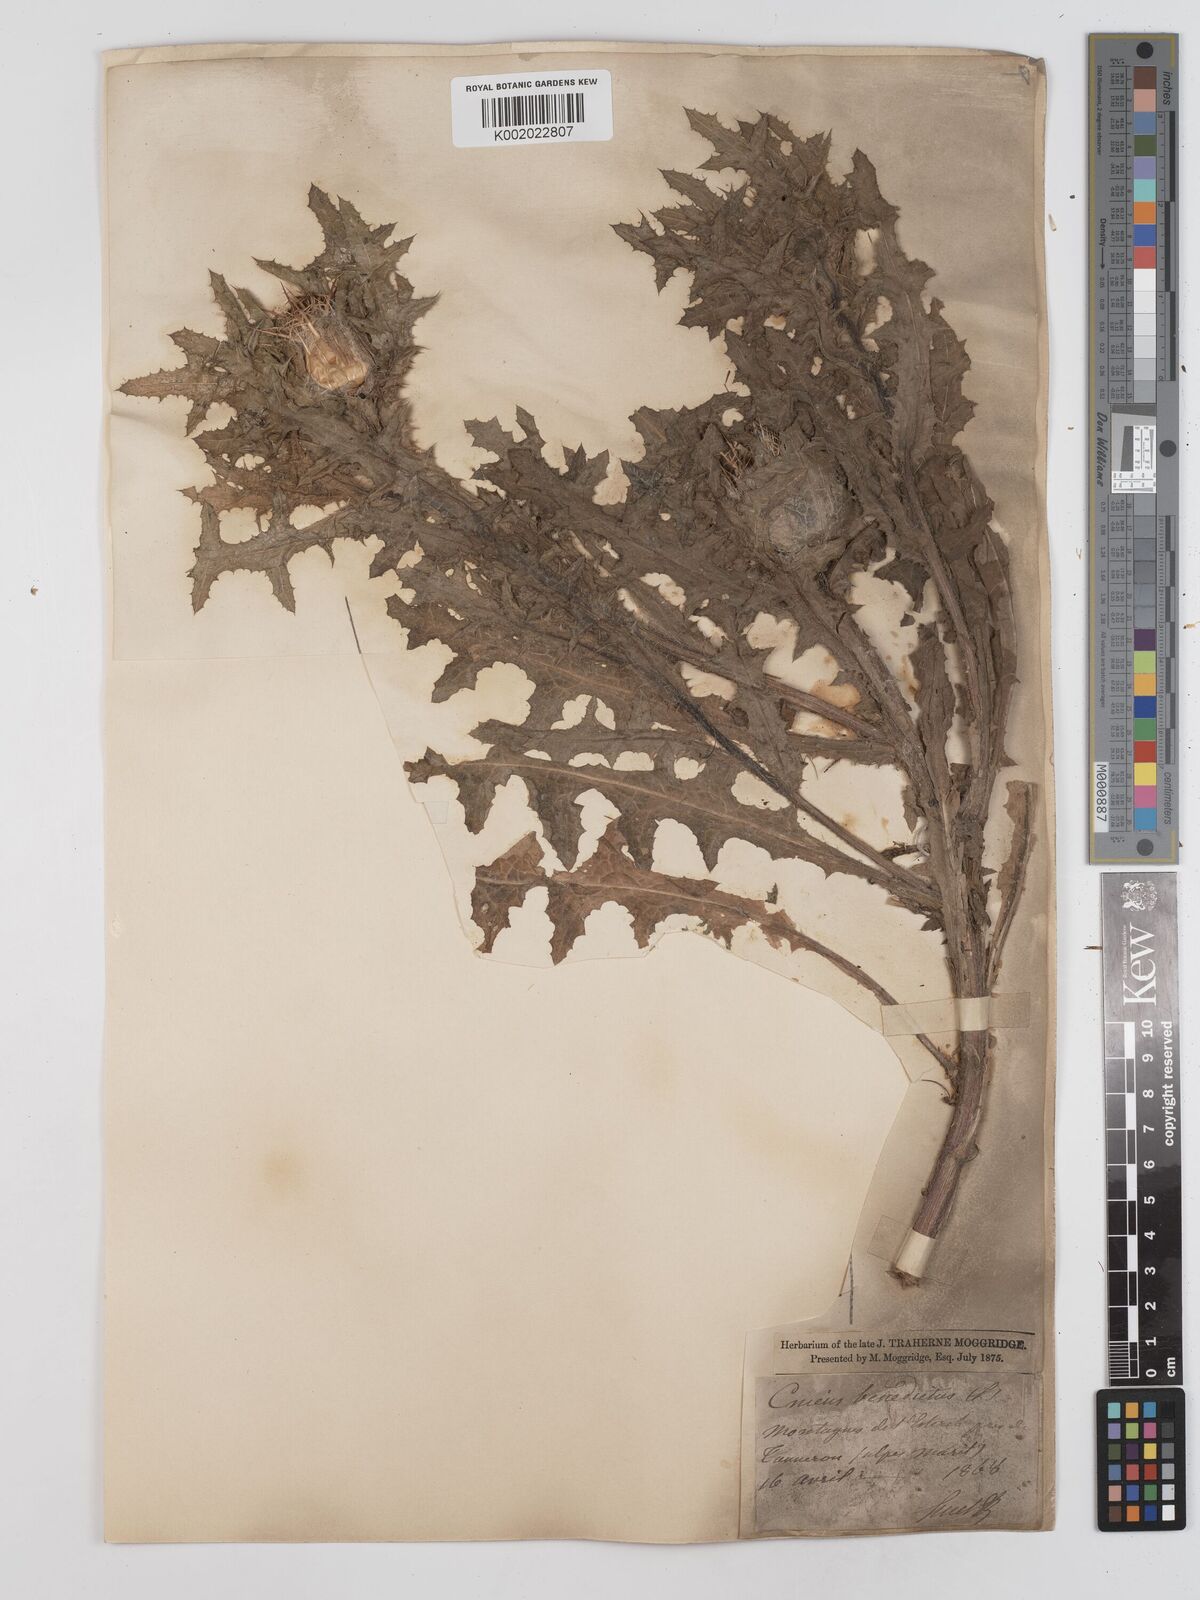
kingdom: Plantae
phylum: Tracheophyta
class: Magnoliopsida
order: Asterales
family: Asteraceae
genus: Centaurea
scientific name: Centaurea benedicta
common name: Blessed thistle
